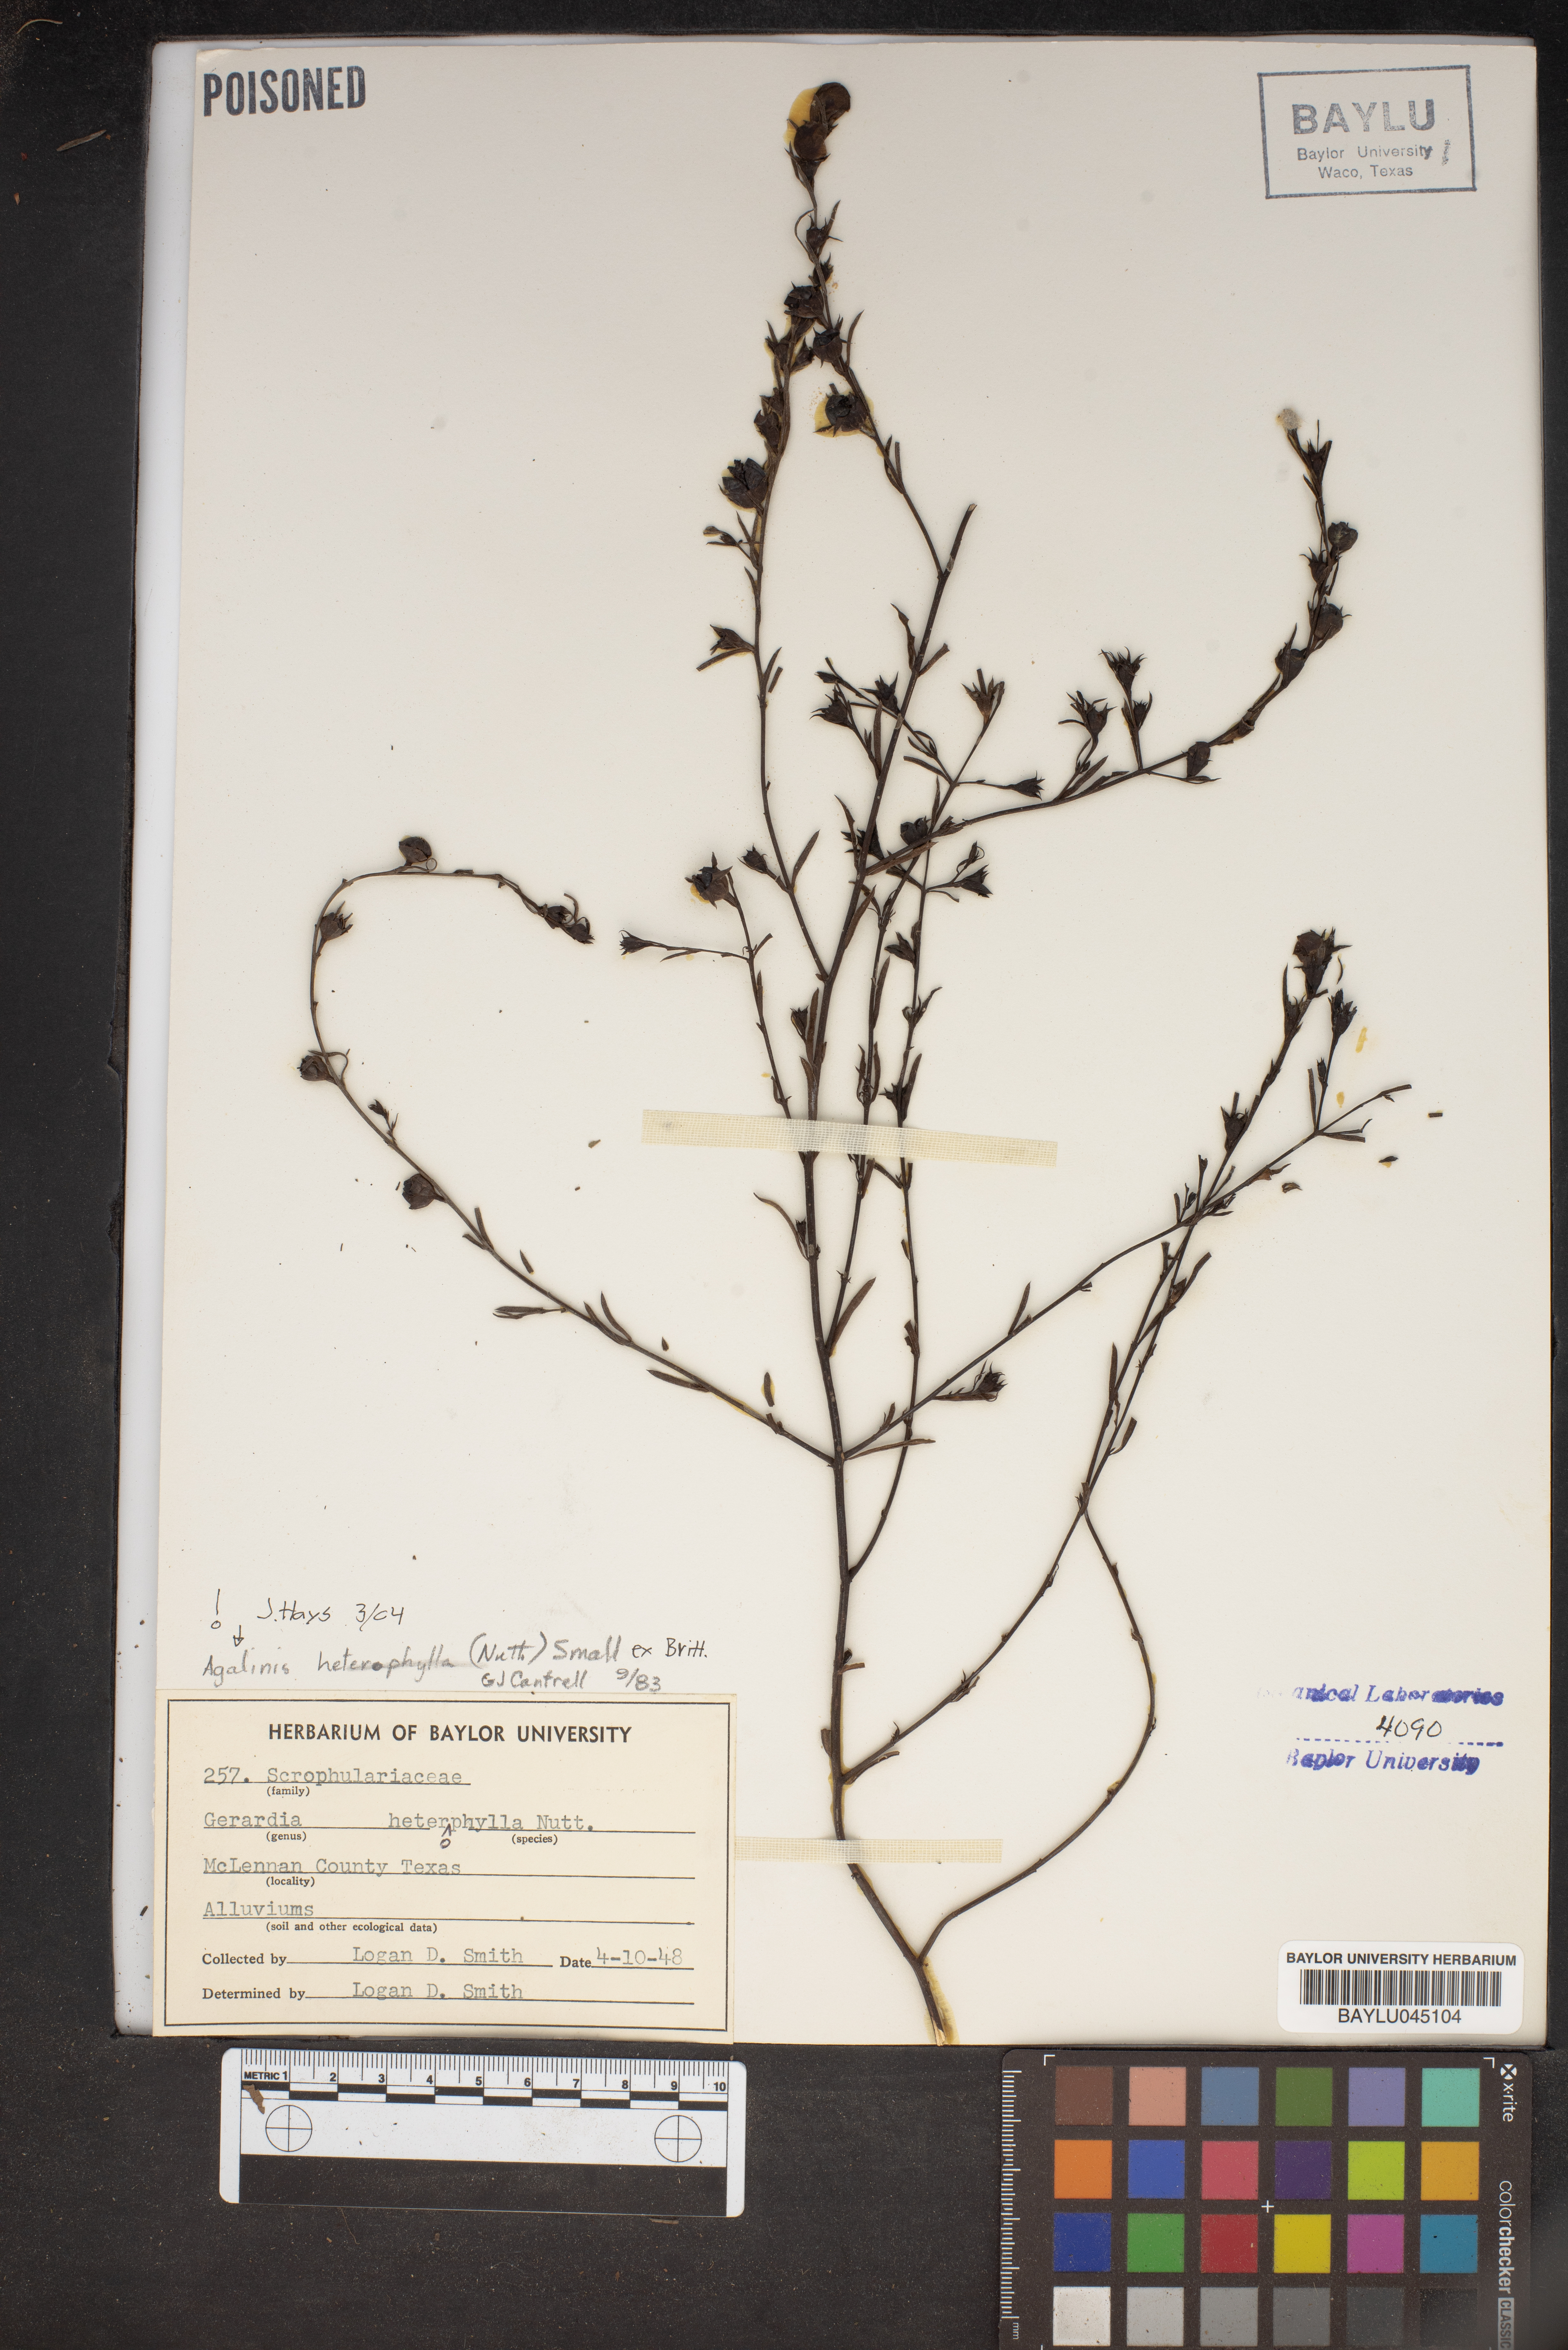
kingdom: Plantae
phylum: Tracheophyta
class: Magnoliopsida
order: Lamiales
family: Orobanchaceae
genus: Agalinis
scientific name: Agalinis heterophylla
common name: Prairie agalinis
